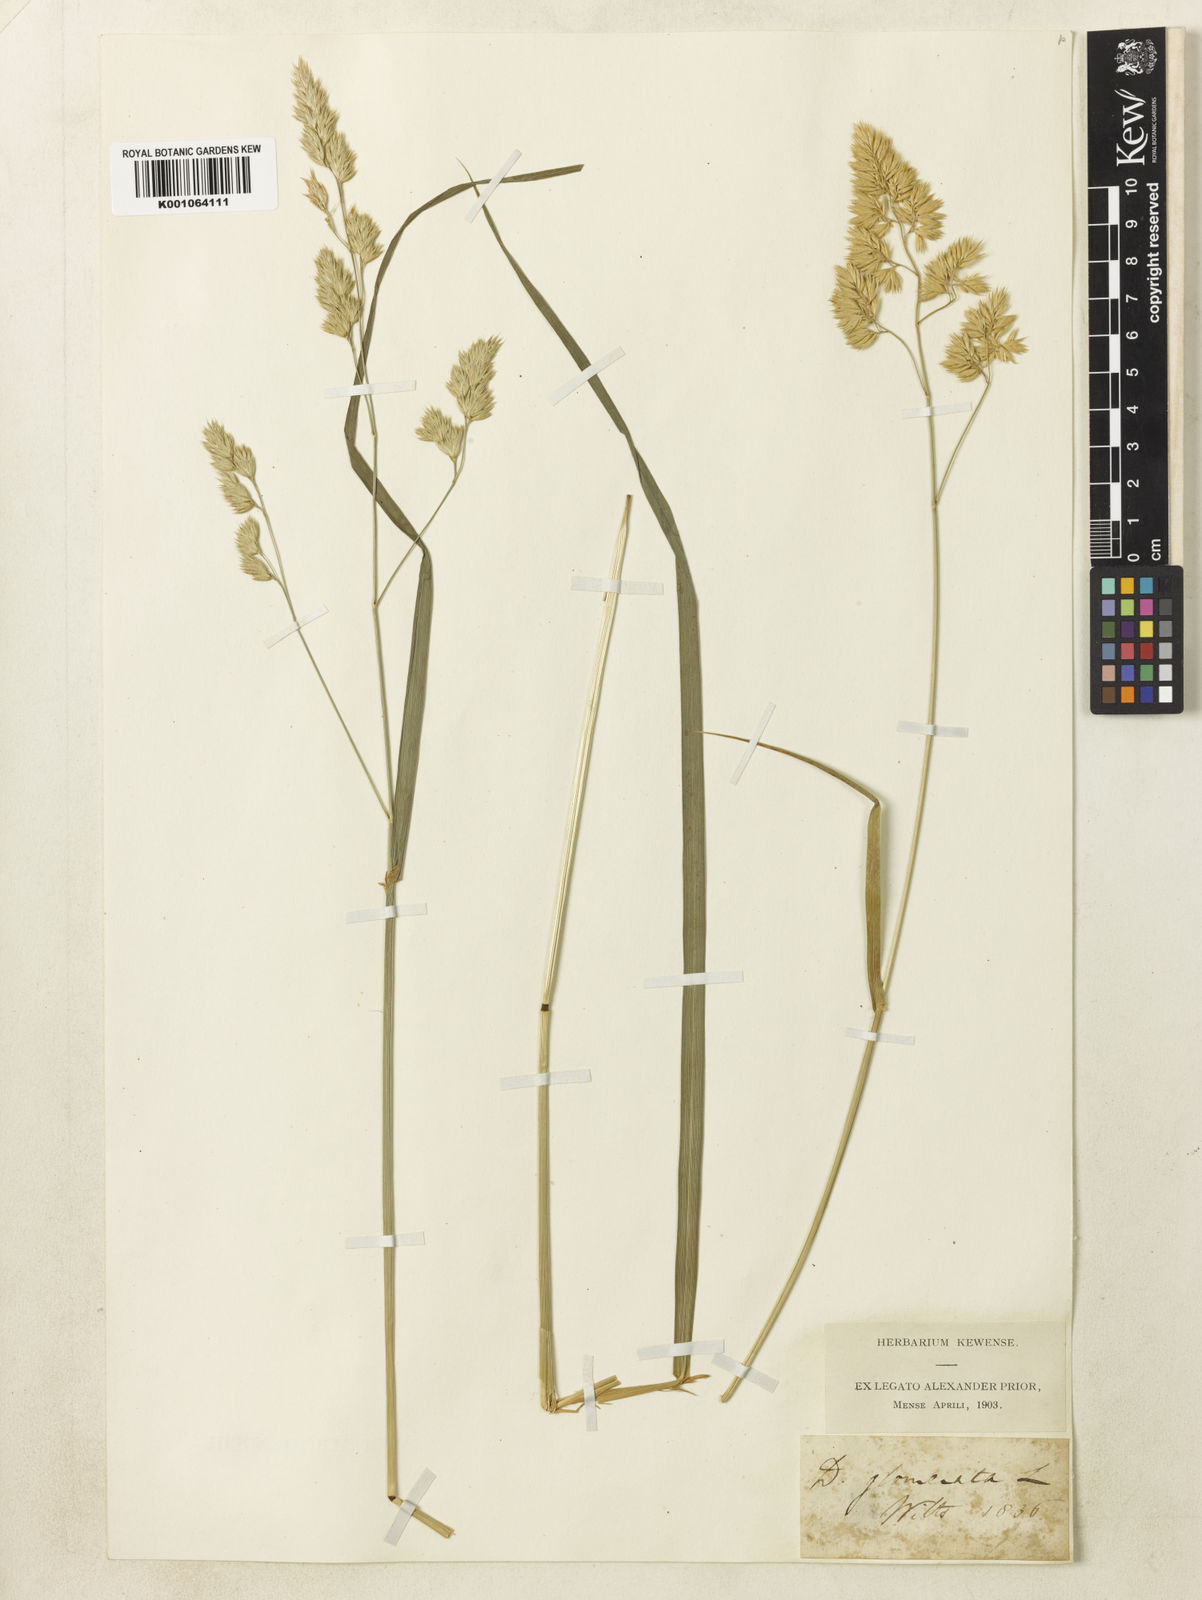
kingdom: Plantae
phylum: Tracheophyta
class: Liliopsida
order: Poales
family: Poaceae
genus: Dactylis
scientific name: Dactylis glomerata
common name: Orchardgrass
